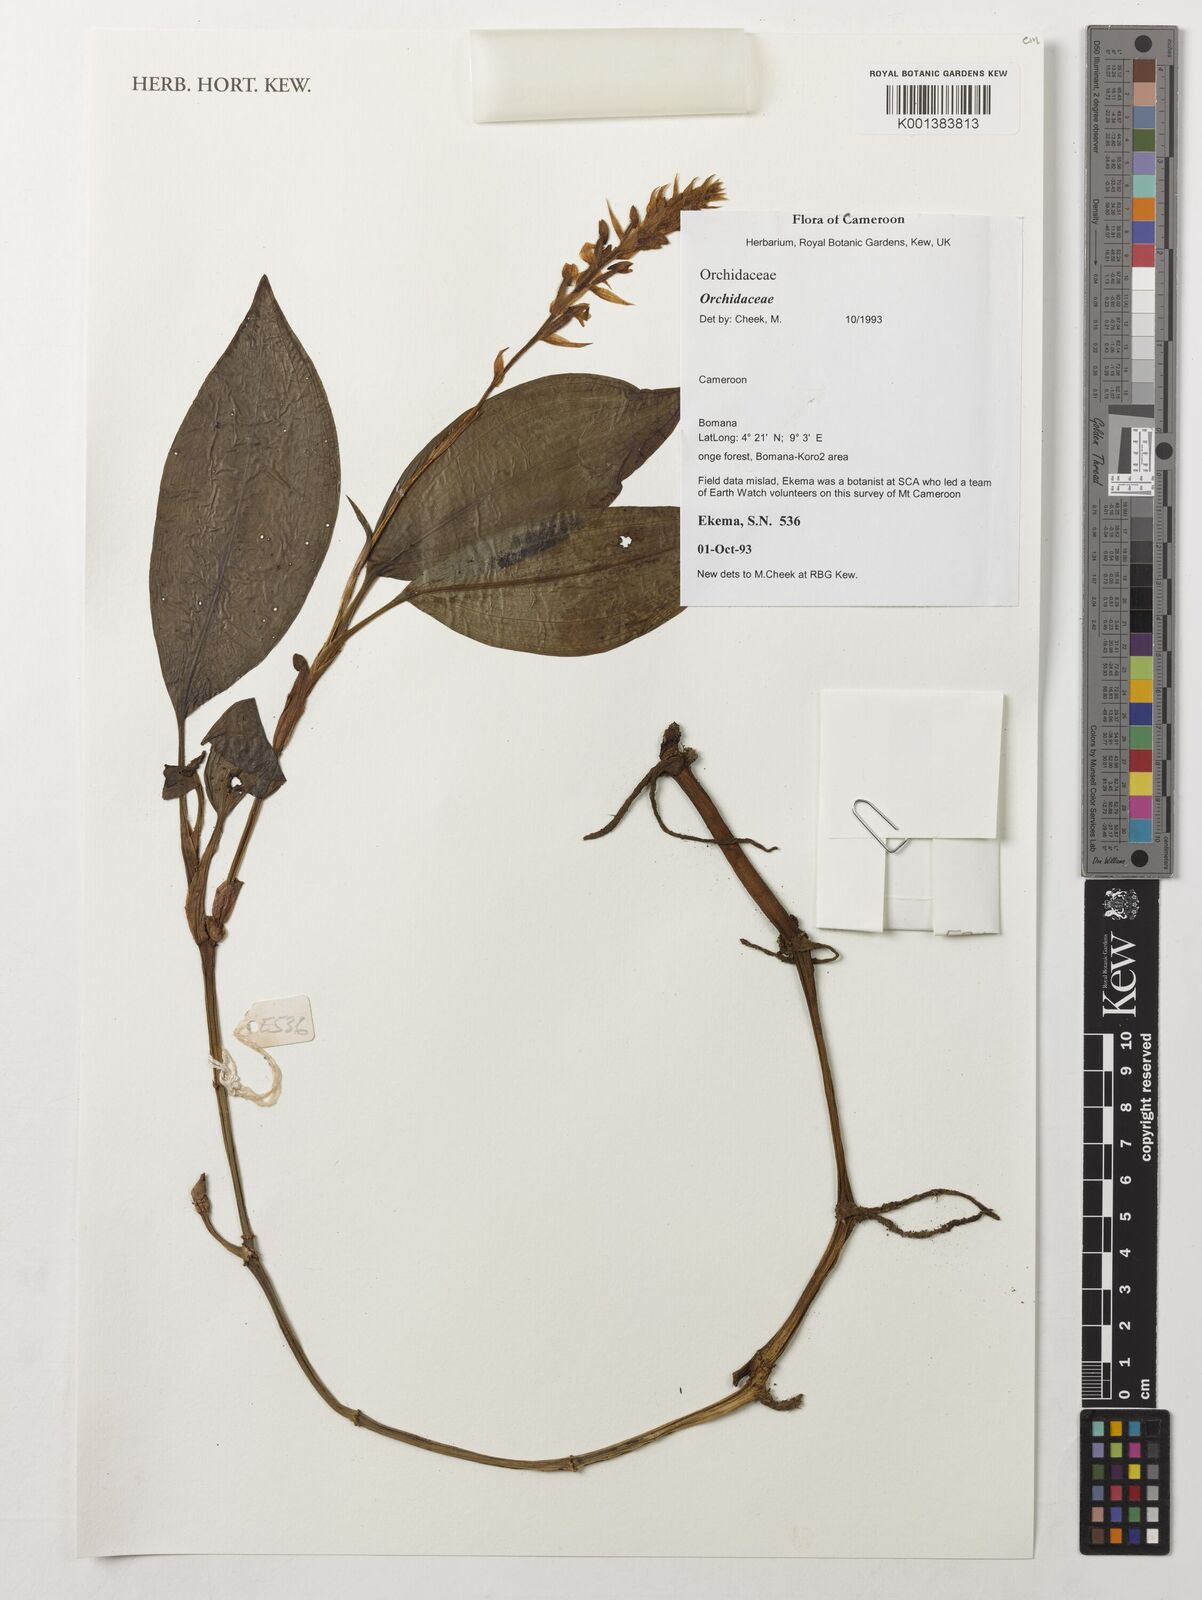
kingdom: Plantae
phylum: Tracheophyta
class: Liliopsida
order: Asparagales
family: Orchidaceae
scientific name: Orchidaceae
